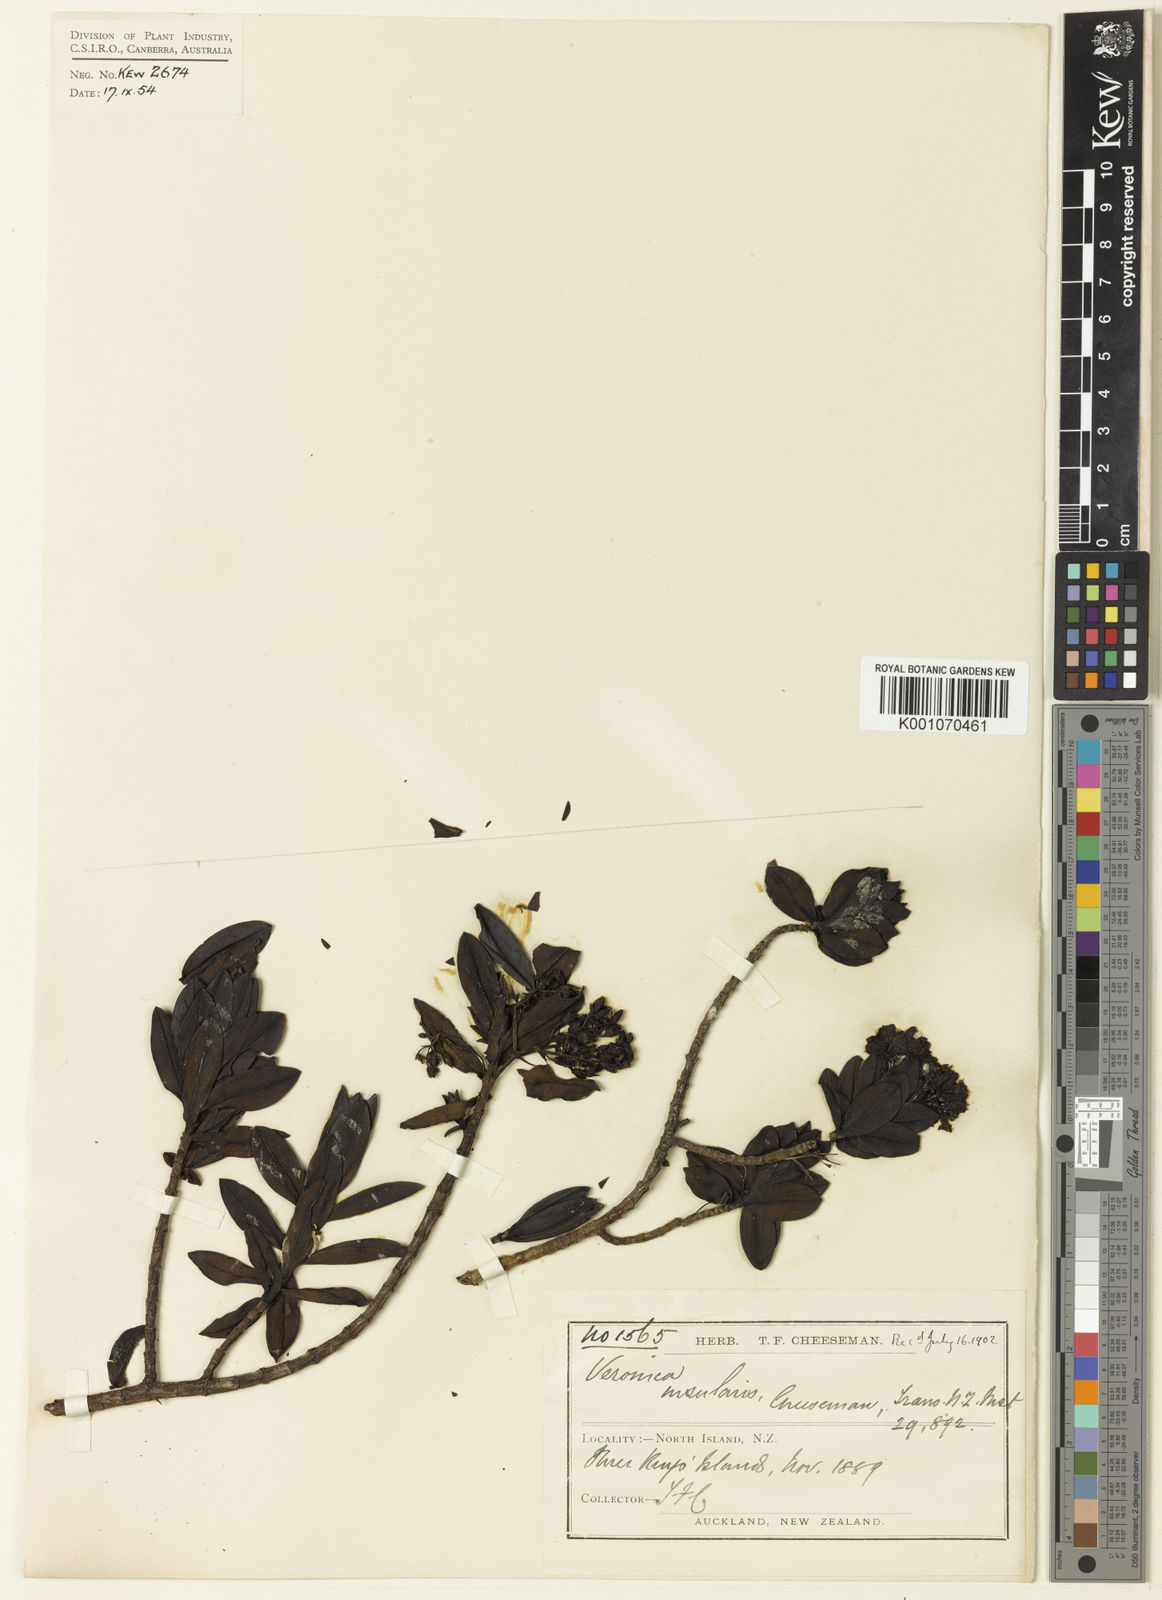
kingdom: Plantae
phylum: Tracheophyta
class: Magnoliopsida
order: Lamiales
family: Plantaginaceae
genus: Veronica
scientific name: Veronica insularis
